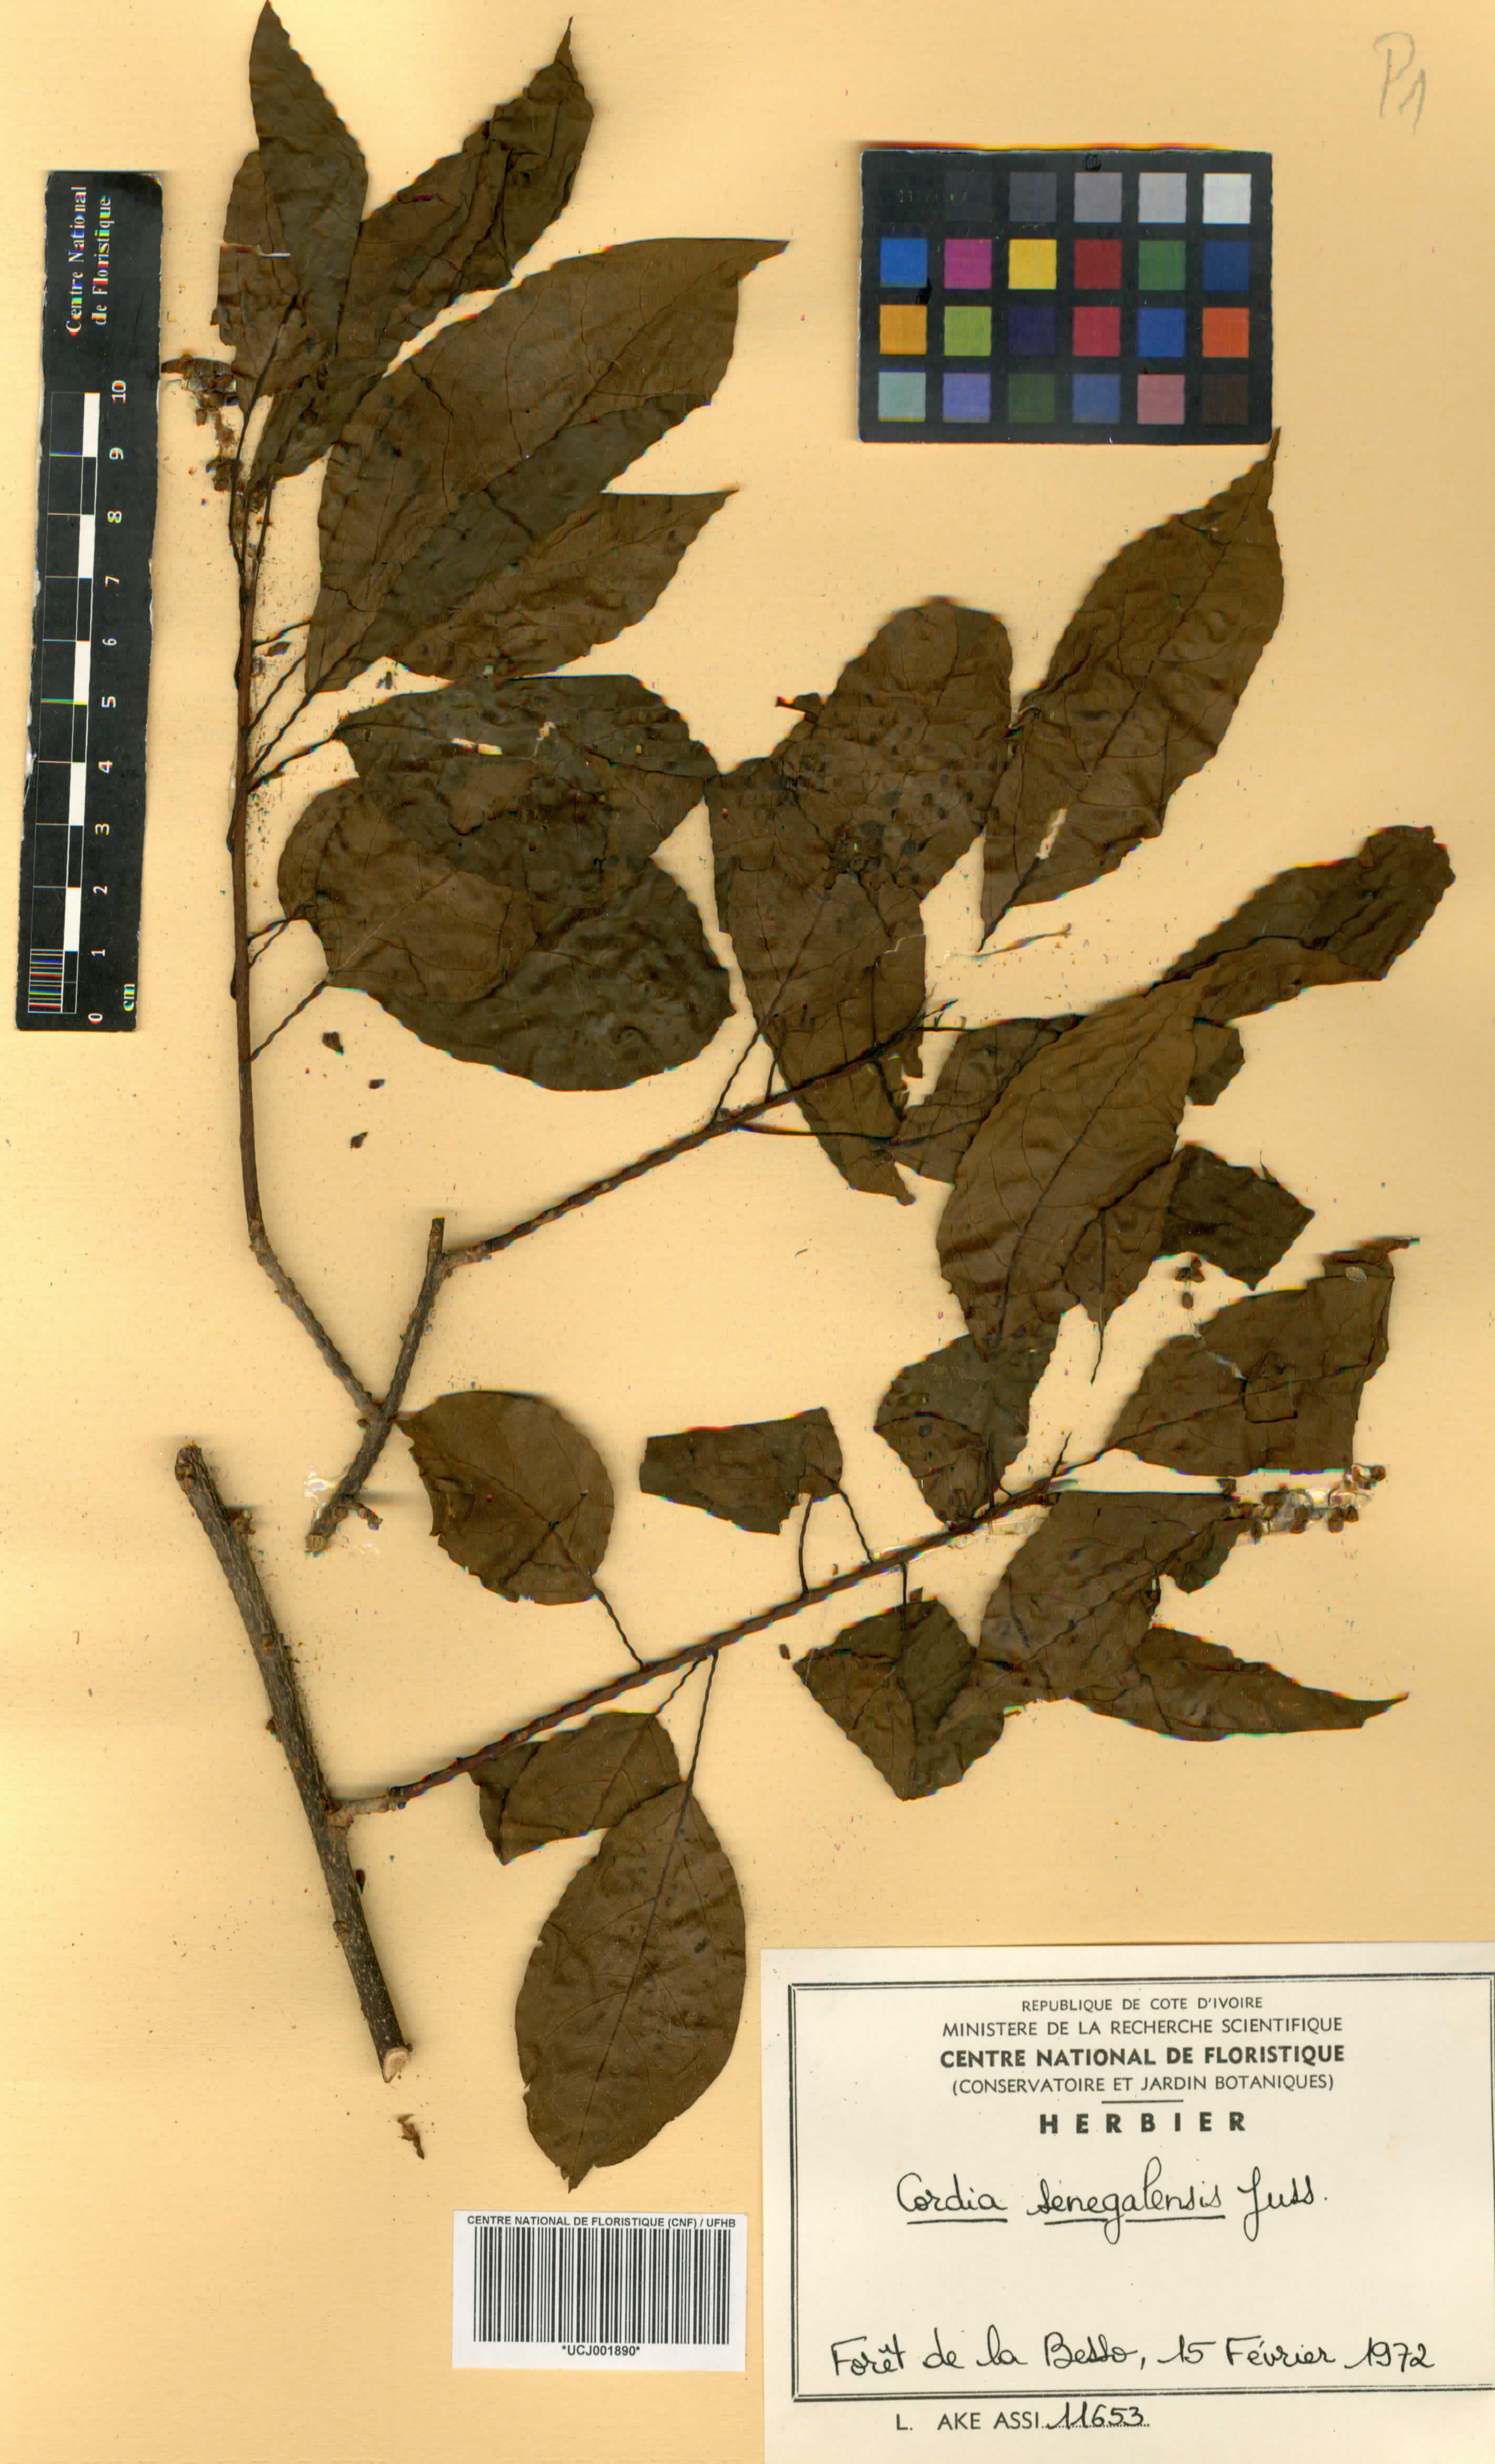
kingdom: Plantae
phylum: Tracheophyta
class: Magnoliopsida
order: Boraginales
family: Cordiaceae
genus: Cordia
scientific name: Cordia senegalensis
